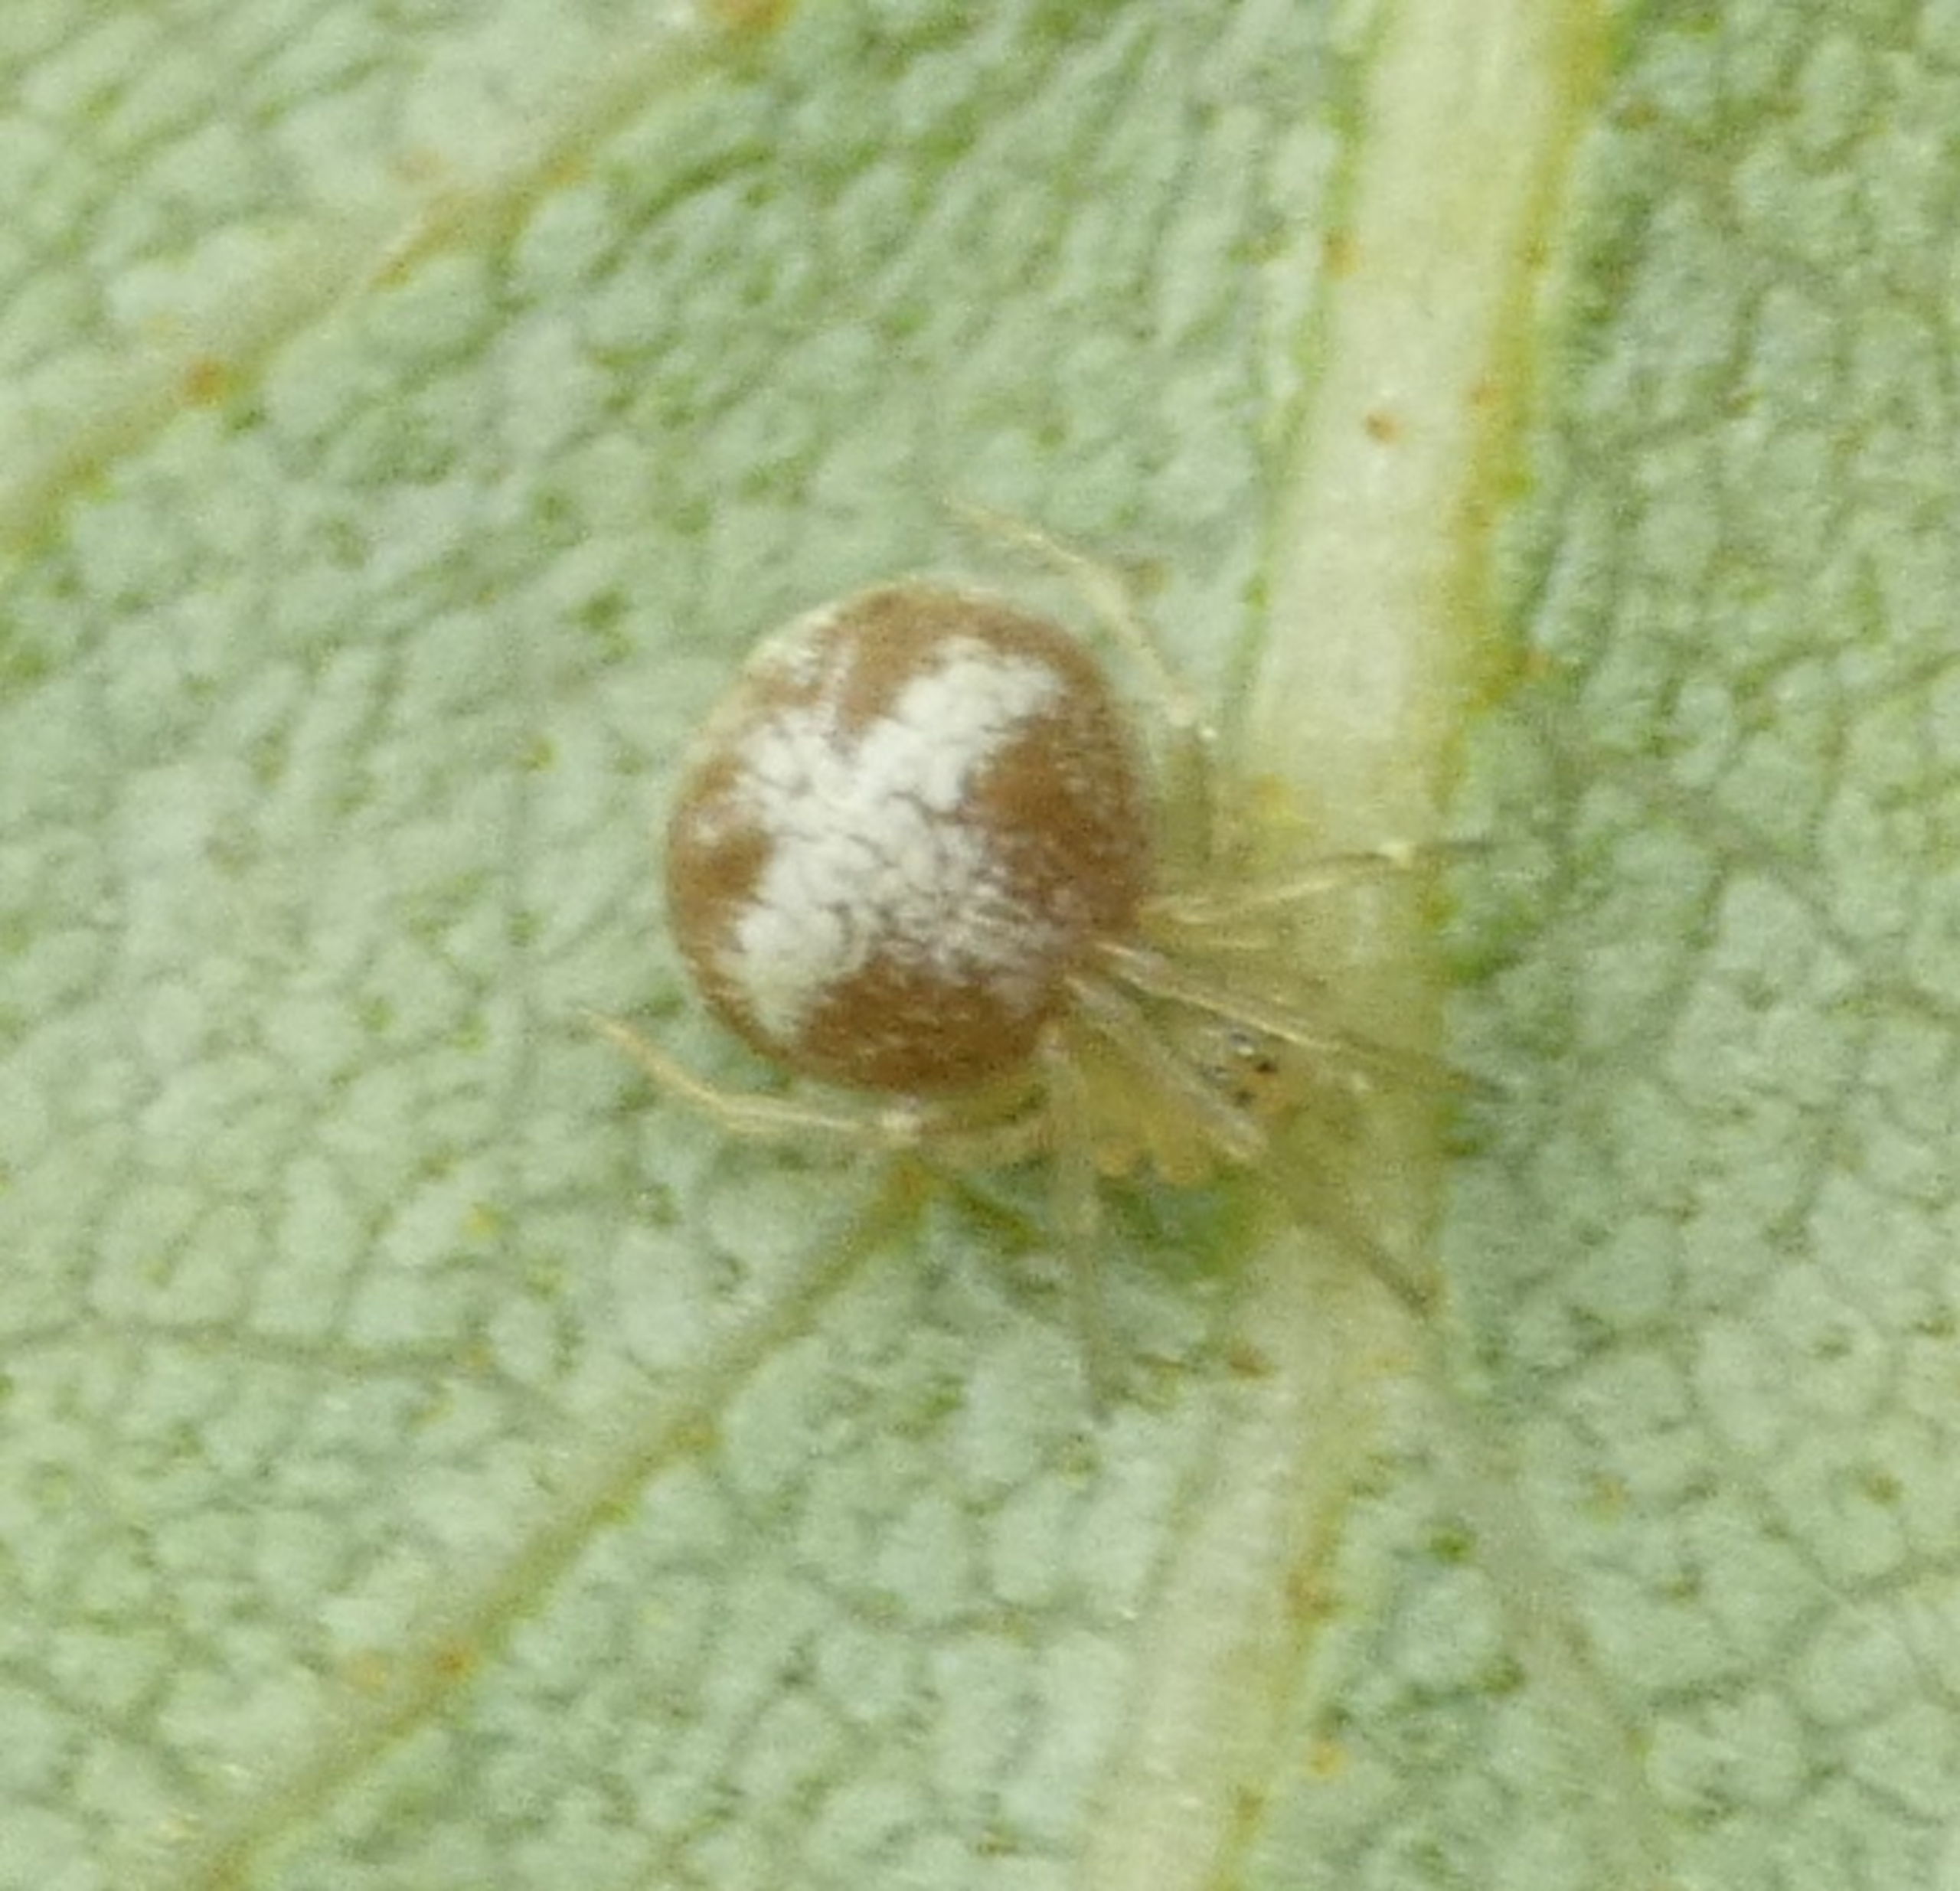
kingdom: Animalia
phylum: Arthropoda
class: Arachnida
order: Araneae
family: Theridiidae
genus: Paidiscura
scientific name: Paidiscura pallens
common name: Lille bladkugleedderkop
